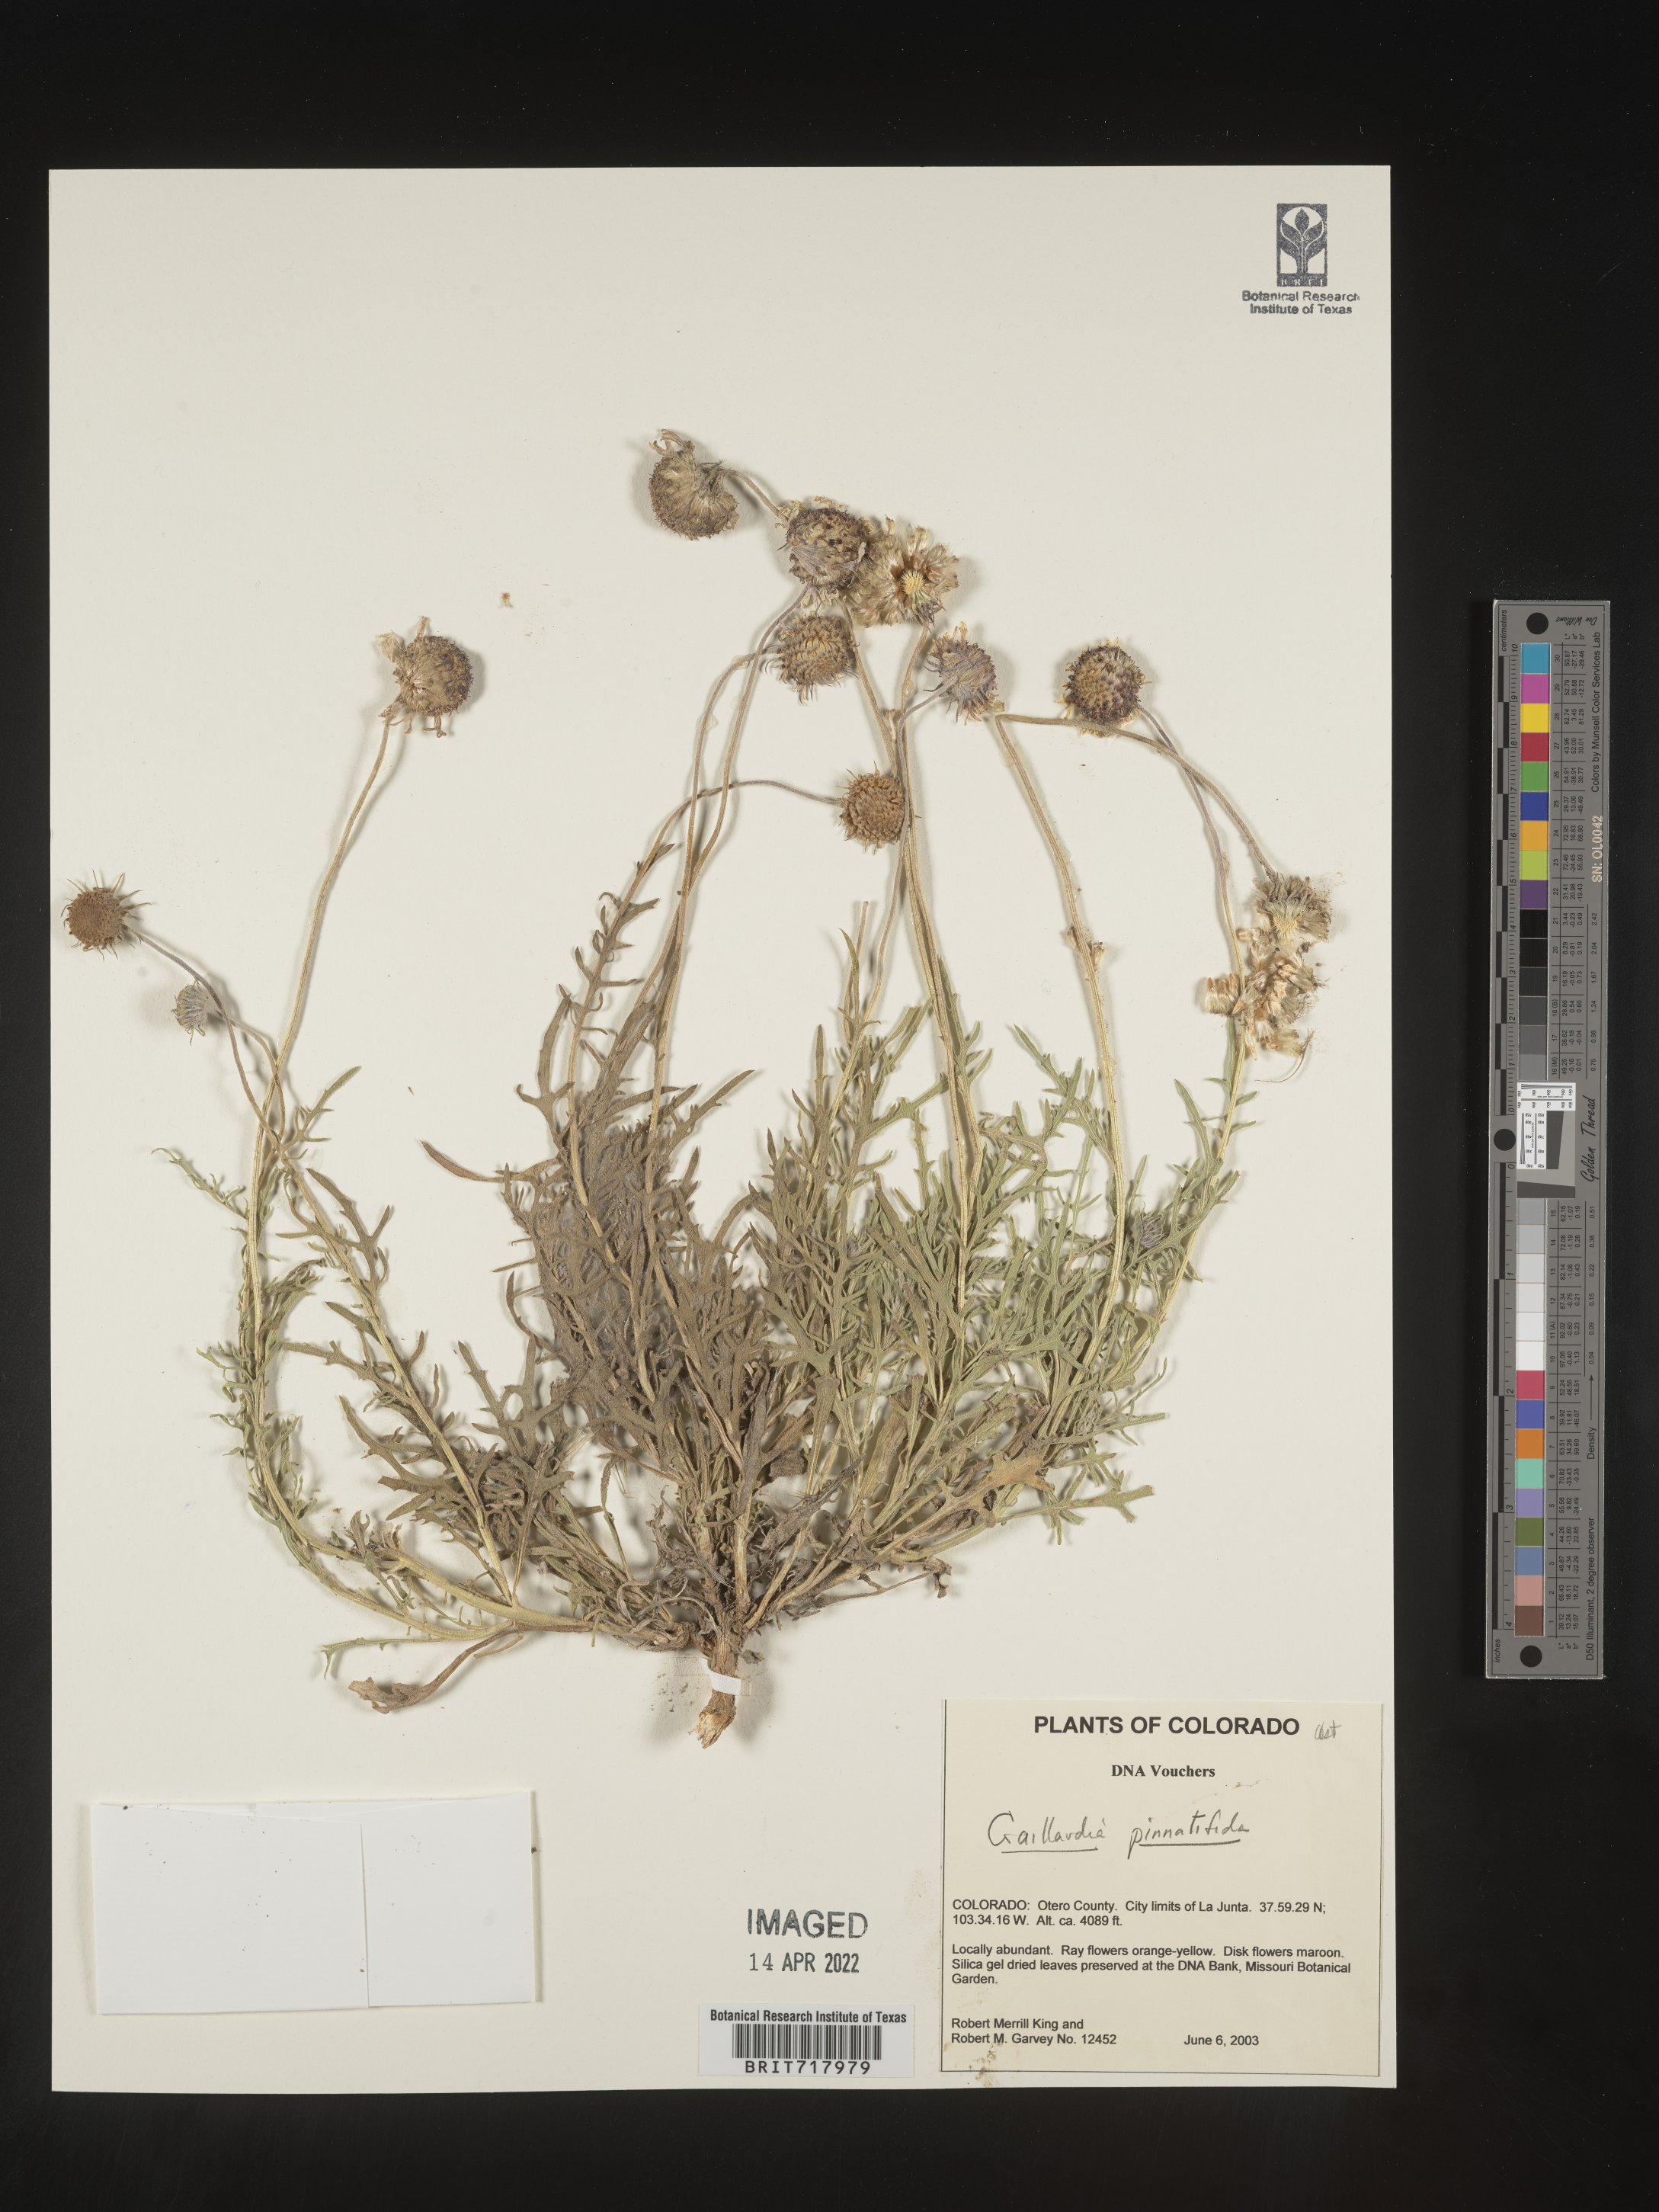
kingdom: Plantae
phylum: Tracheophyta
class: Magnoliopsida
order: Asterales
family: Asteraceae
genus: Gaillardia
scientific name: Gaillardia pinnatifida
